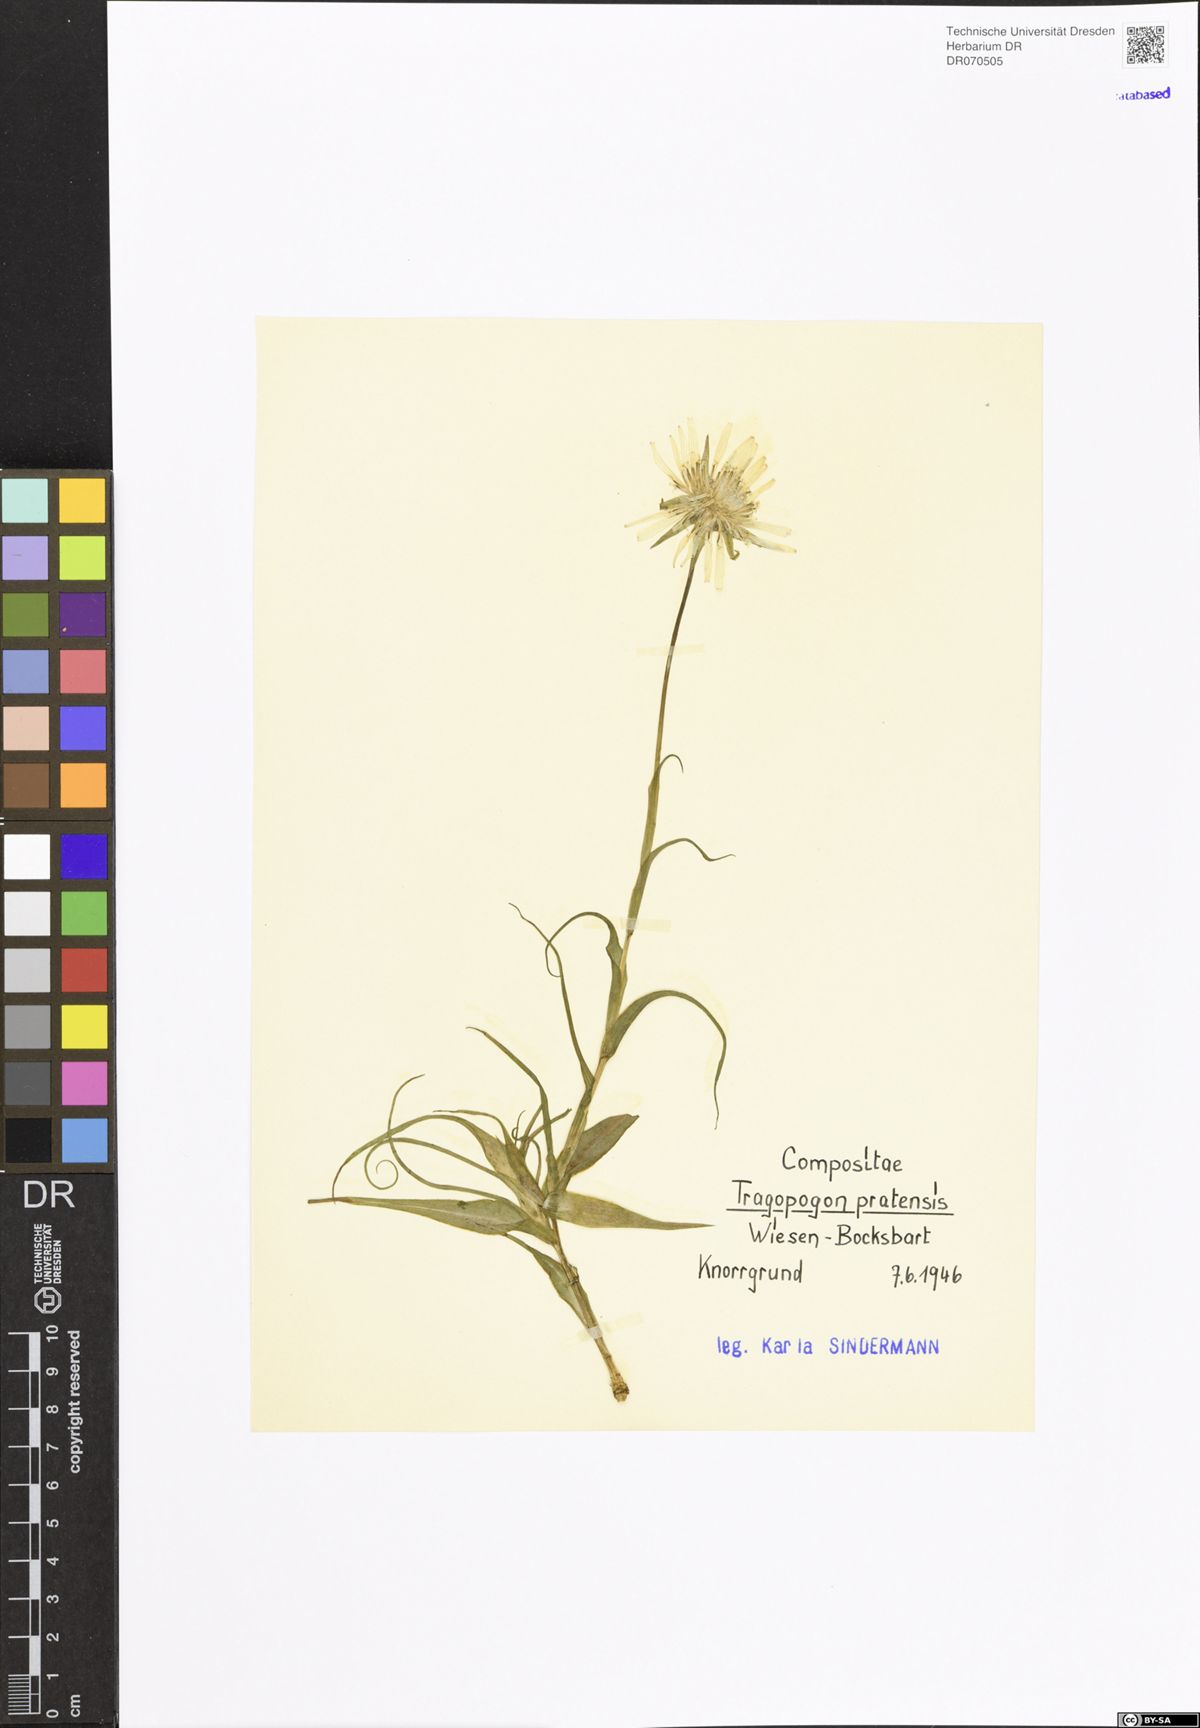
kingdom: Plantae
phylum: Tracheophyta
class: Magnoliopsida
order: Asterales
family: Asteraceae
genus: Tragopogon
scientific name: Tragopogon pratensis
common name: Goat's-beard
